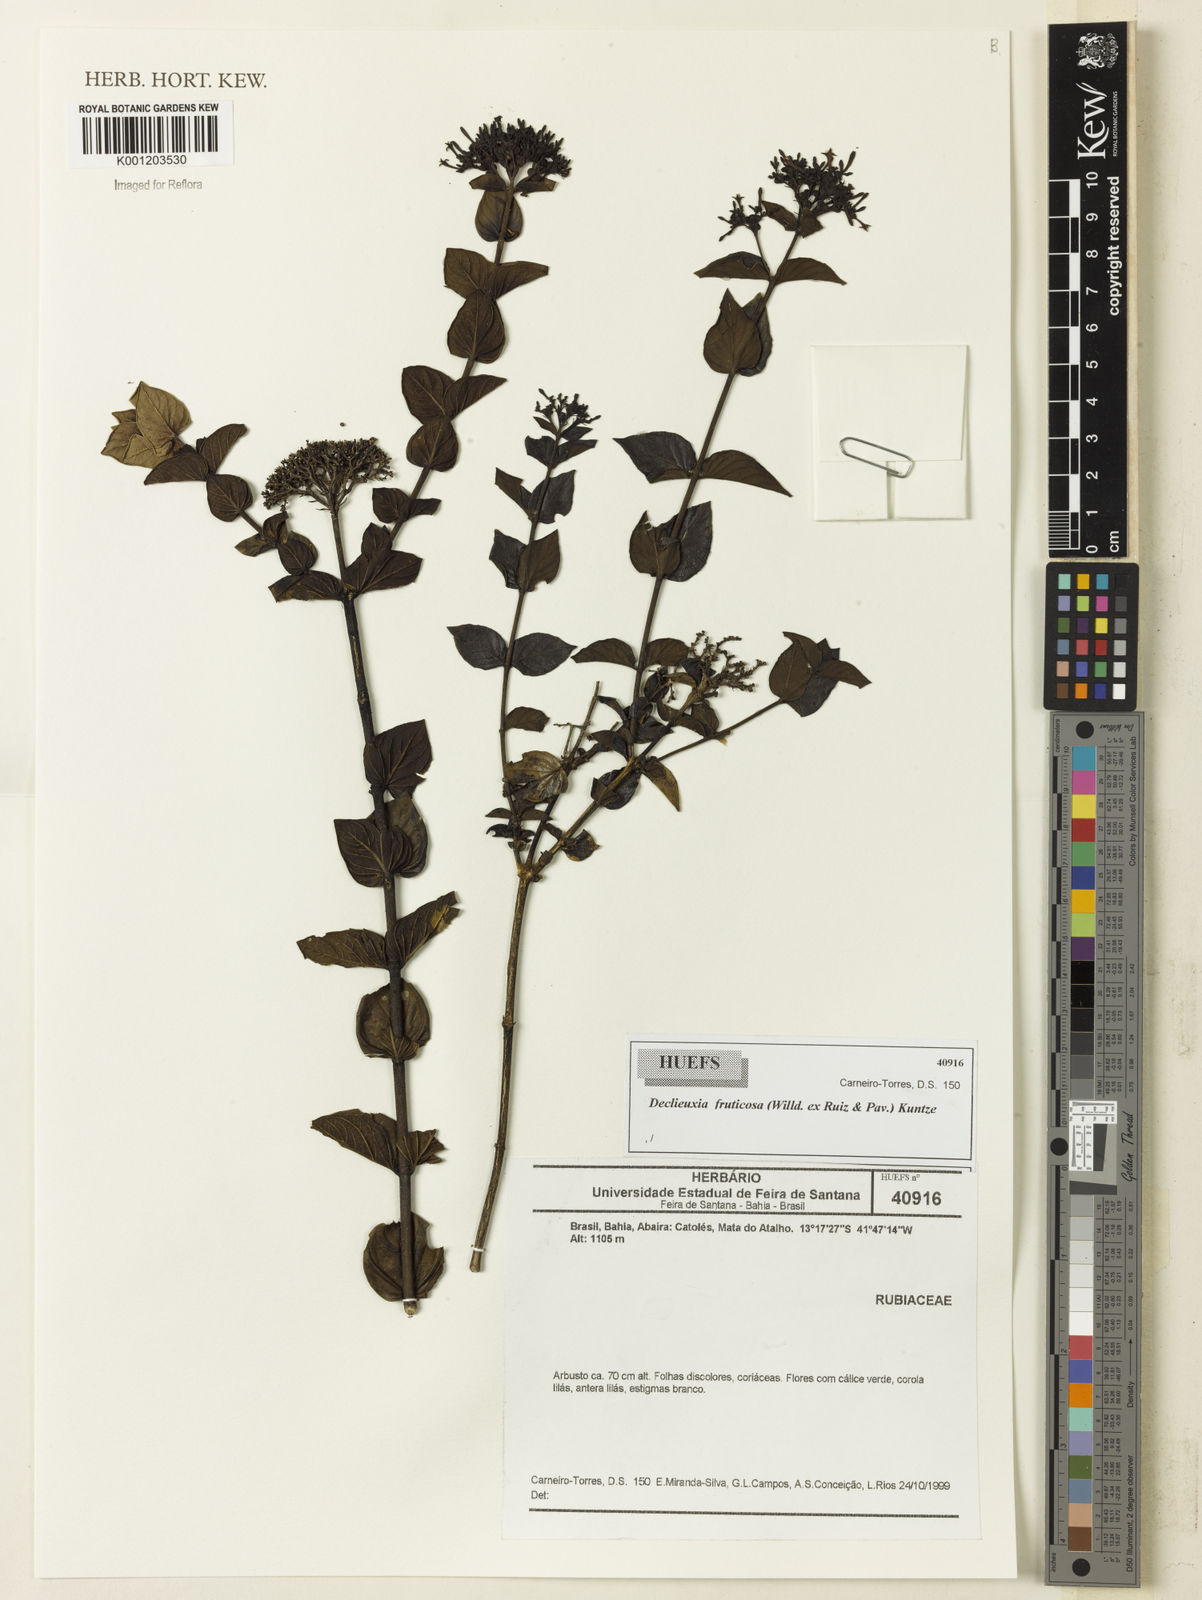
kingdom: Plantae
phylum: Tracheophyta
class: Magnoliopsida
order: Gentianales
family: Rubiaceae
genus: Declieuxia
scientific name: Declieuxia fruticosa
